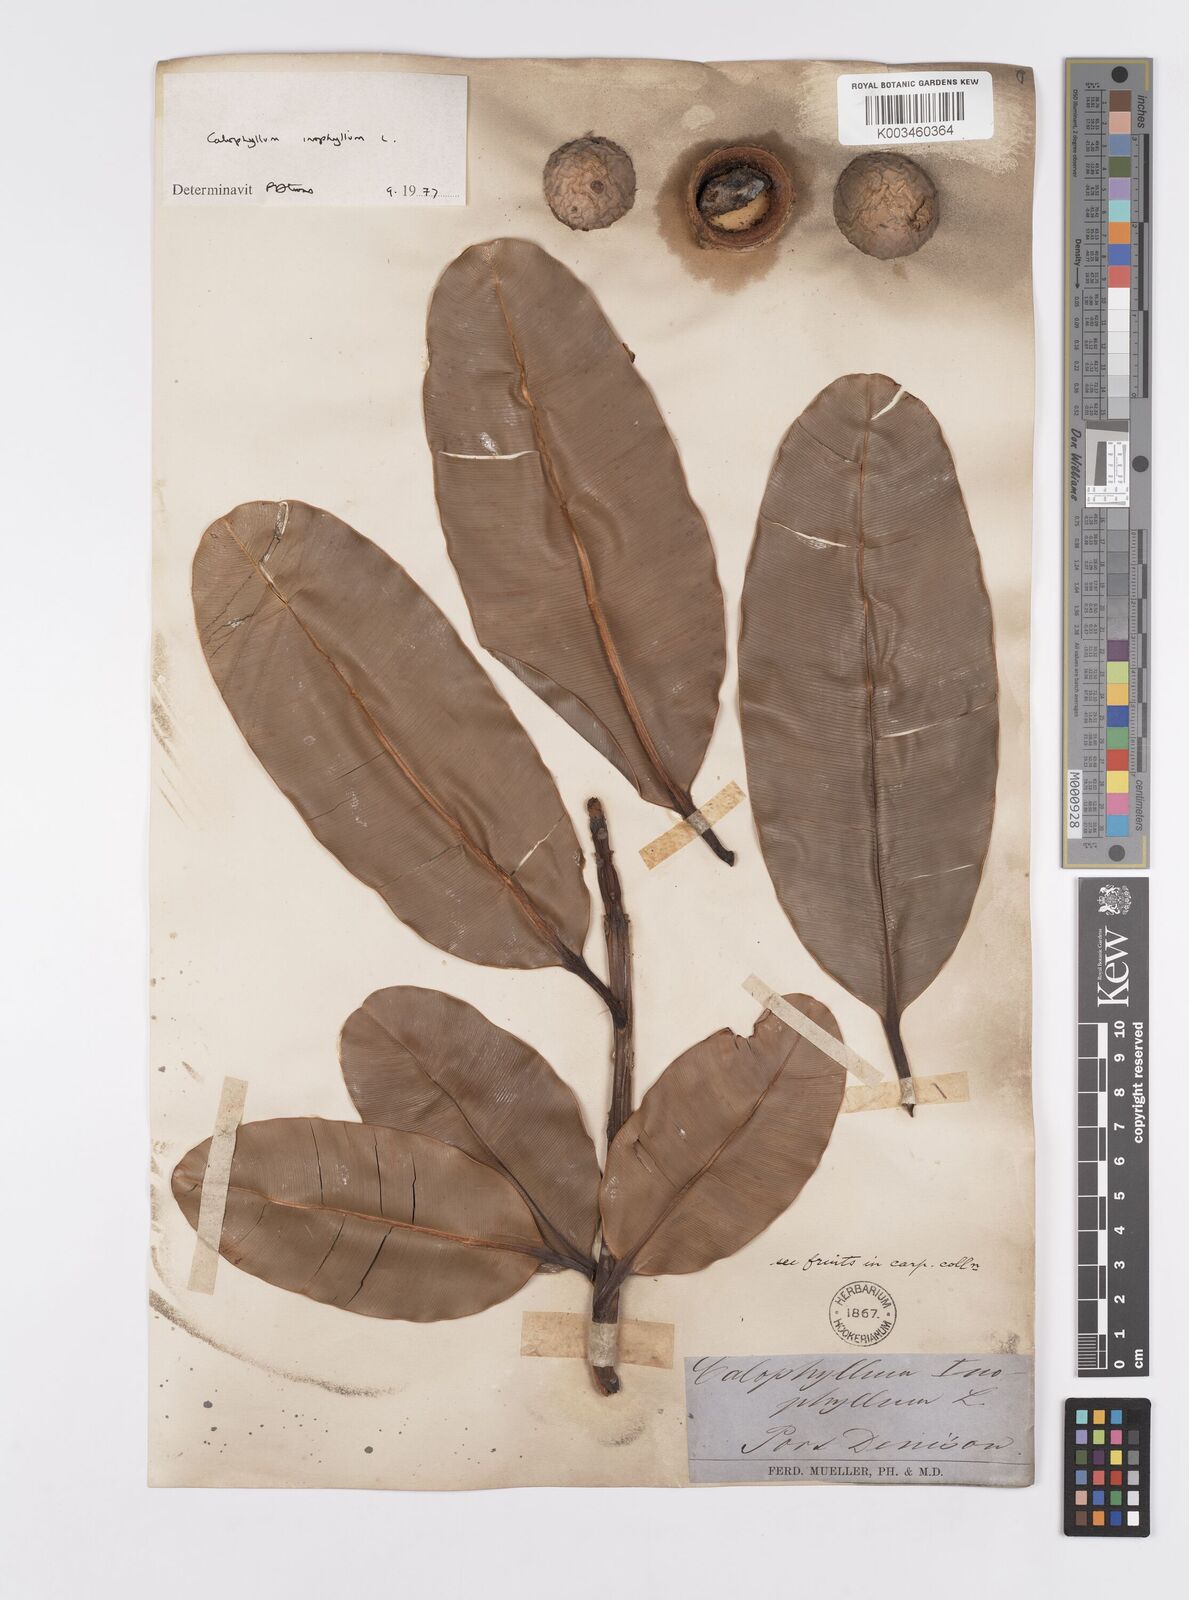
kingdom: Plantae
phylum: Tracheophyta
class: Magnoliopsida
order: Malpighiales
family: Calophyllaceae
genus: Calophyllum
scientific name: Calophyllum inophyllum
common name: Alexandrian laurel
